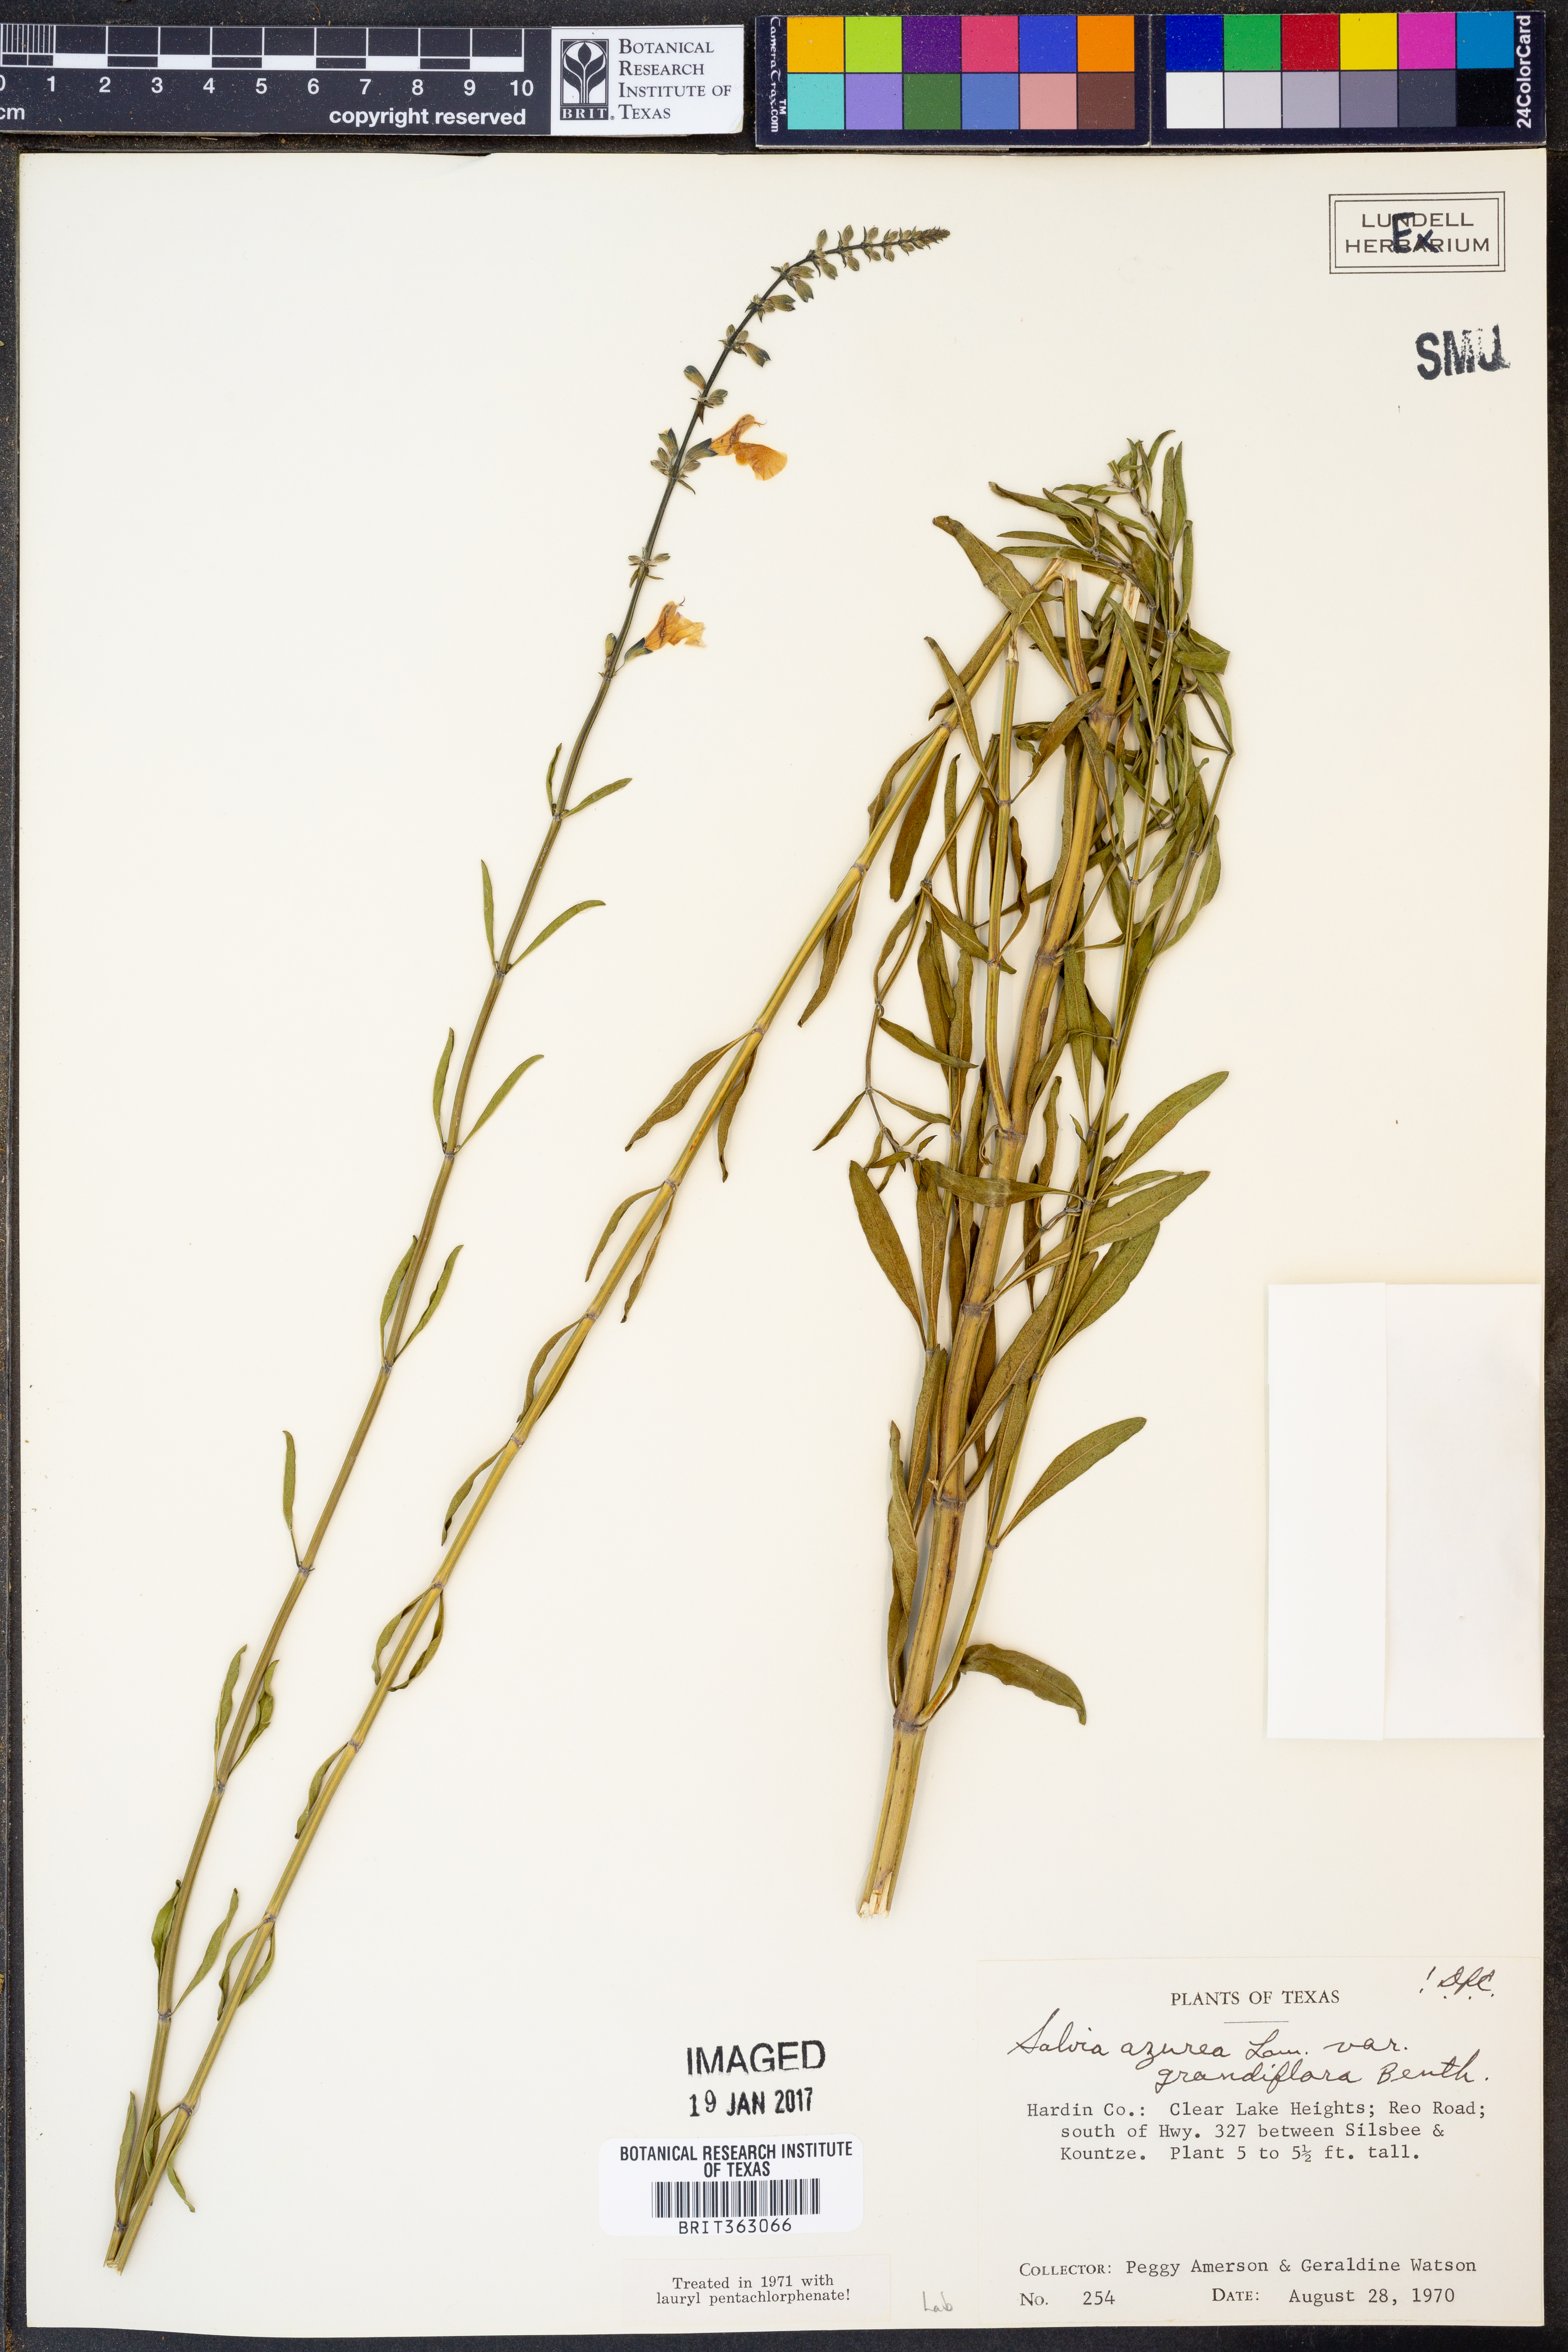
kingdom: Plantae
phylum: Tracheophyta
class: Magnoliopsida
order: Lamiales
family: Lamiaceae
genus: Salvia
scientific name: Salvia azurea
